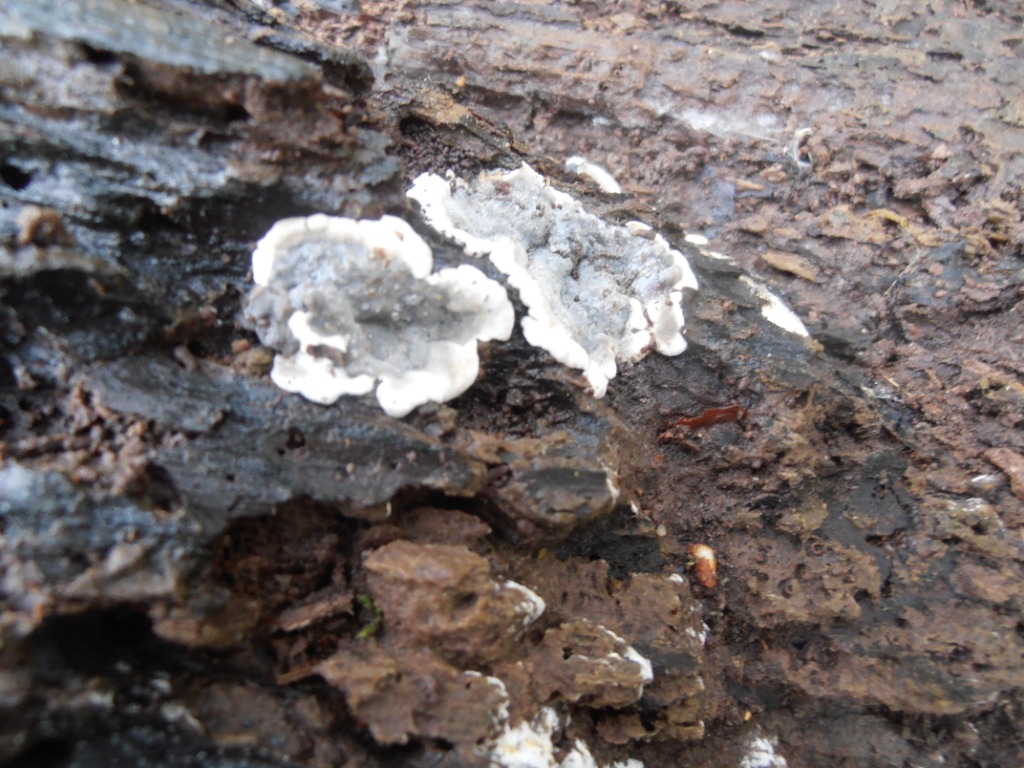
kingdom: Fungi
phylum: Ascomycota
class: Sordariomycetes
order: Xylariales
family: Xylariaceae
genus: Kretzschmaria
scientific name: Kretzschmaria deusta
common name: stor kulsvamp
